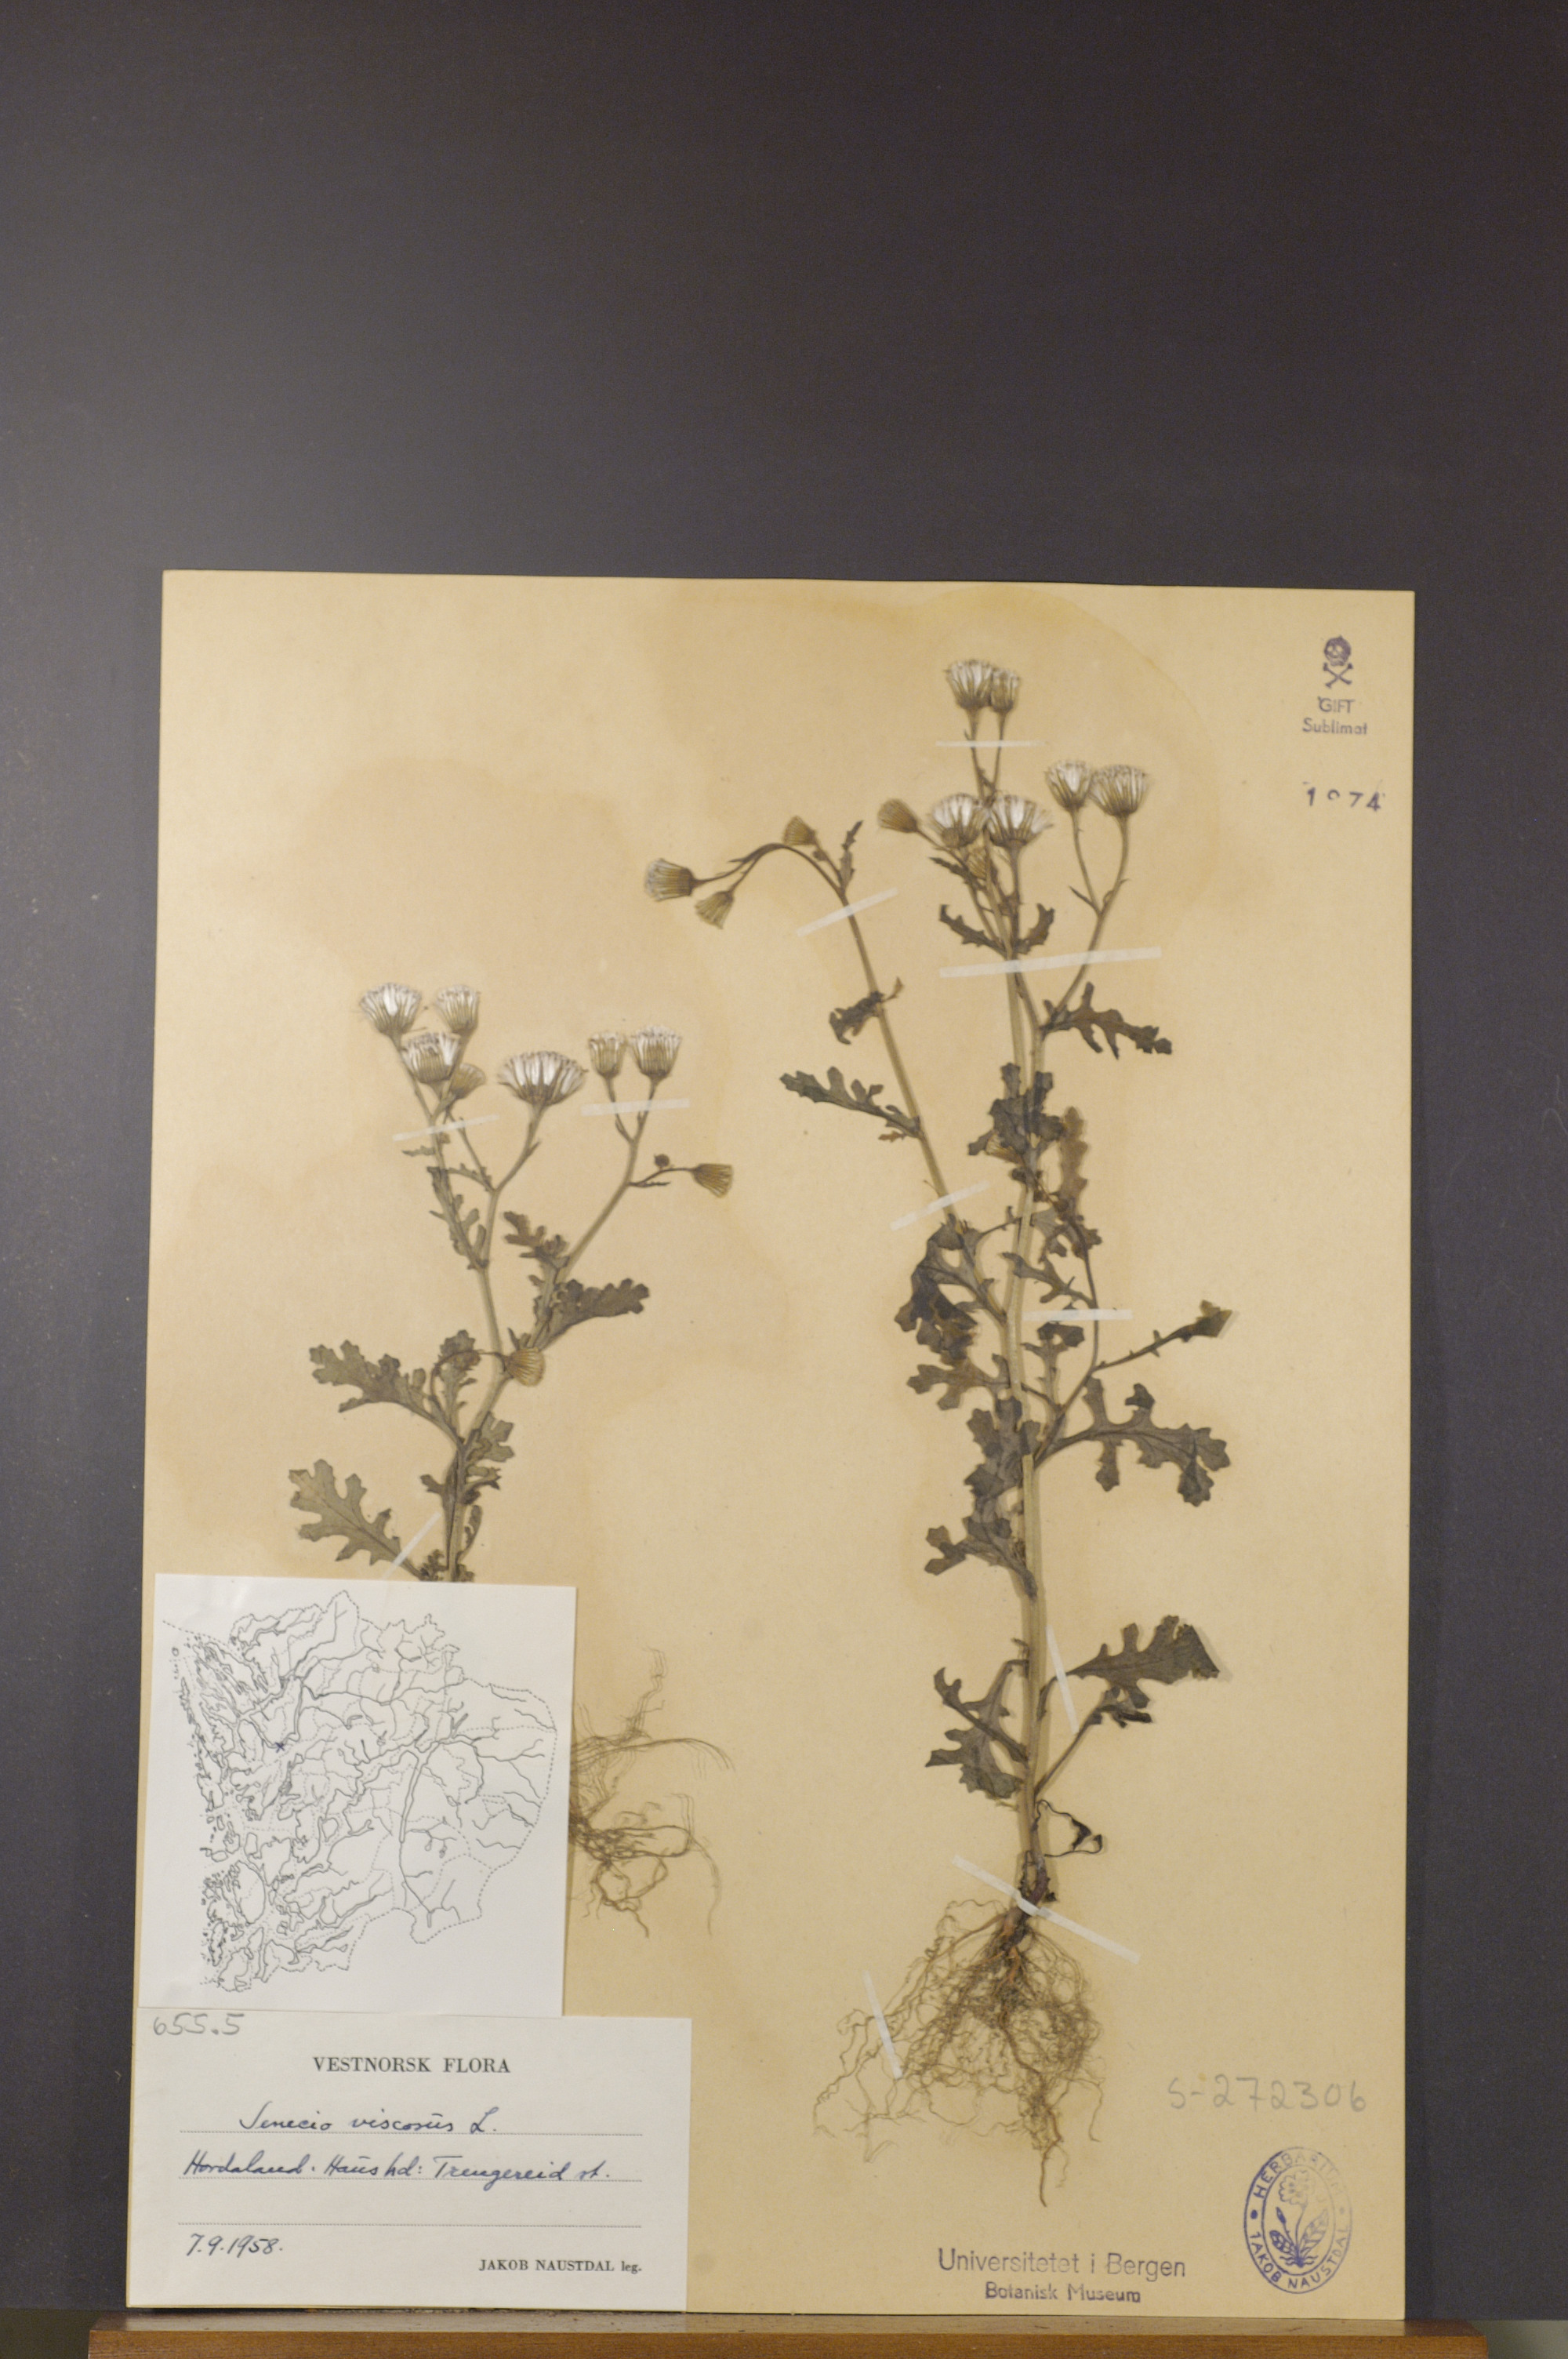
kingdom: Plantae
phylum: Tracheophyta
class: Magnoliopsida
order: Asterales
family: Asteraceae
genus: Senecio
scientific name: Senecio viscosus
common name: Sticky groundsel
